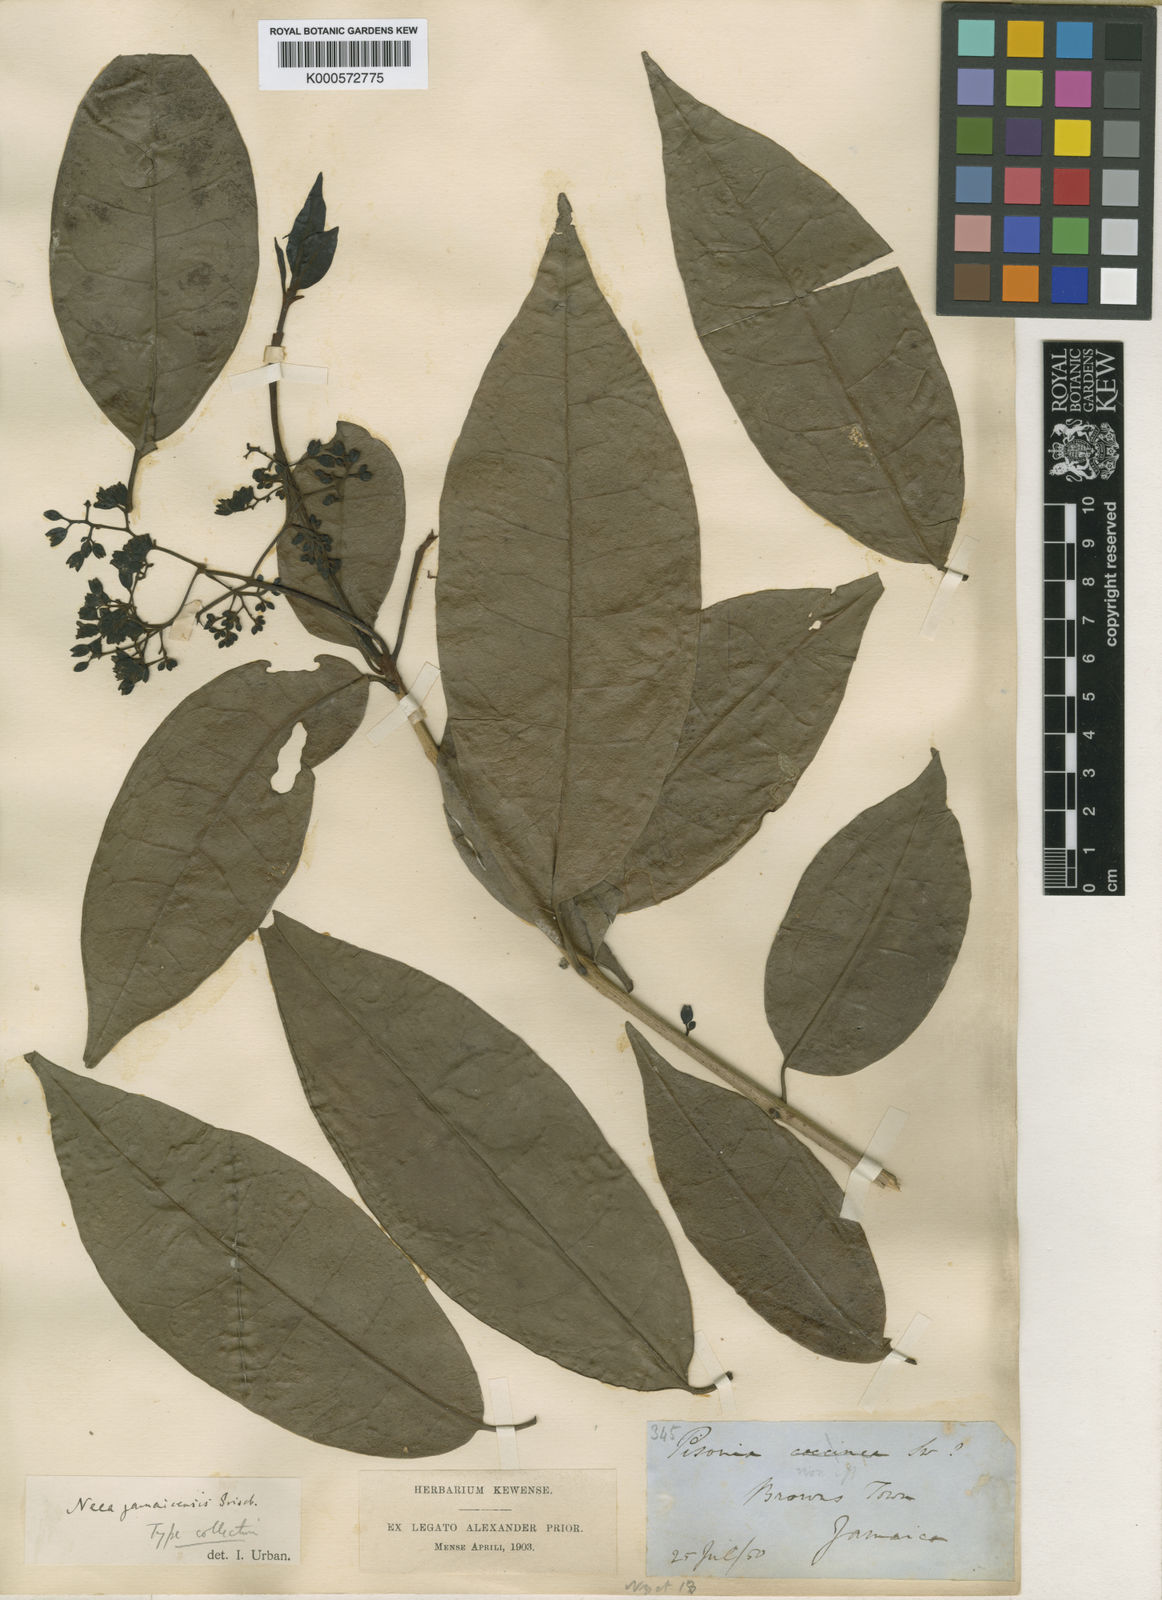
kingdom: Plantae
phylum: Tracheophyta
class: Magnoliopsida
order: Caryophyllales
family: Nyctaginaceae
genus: Neea
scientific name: Neea nigricans
